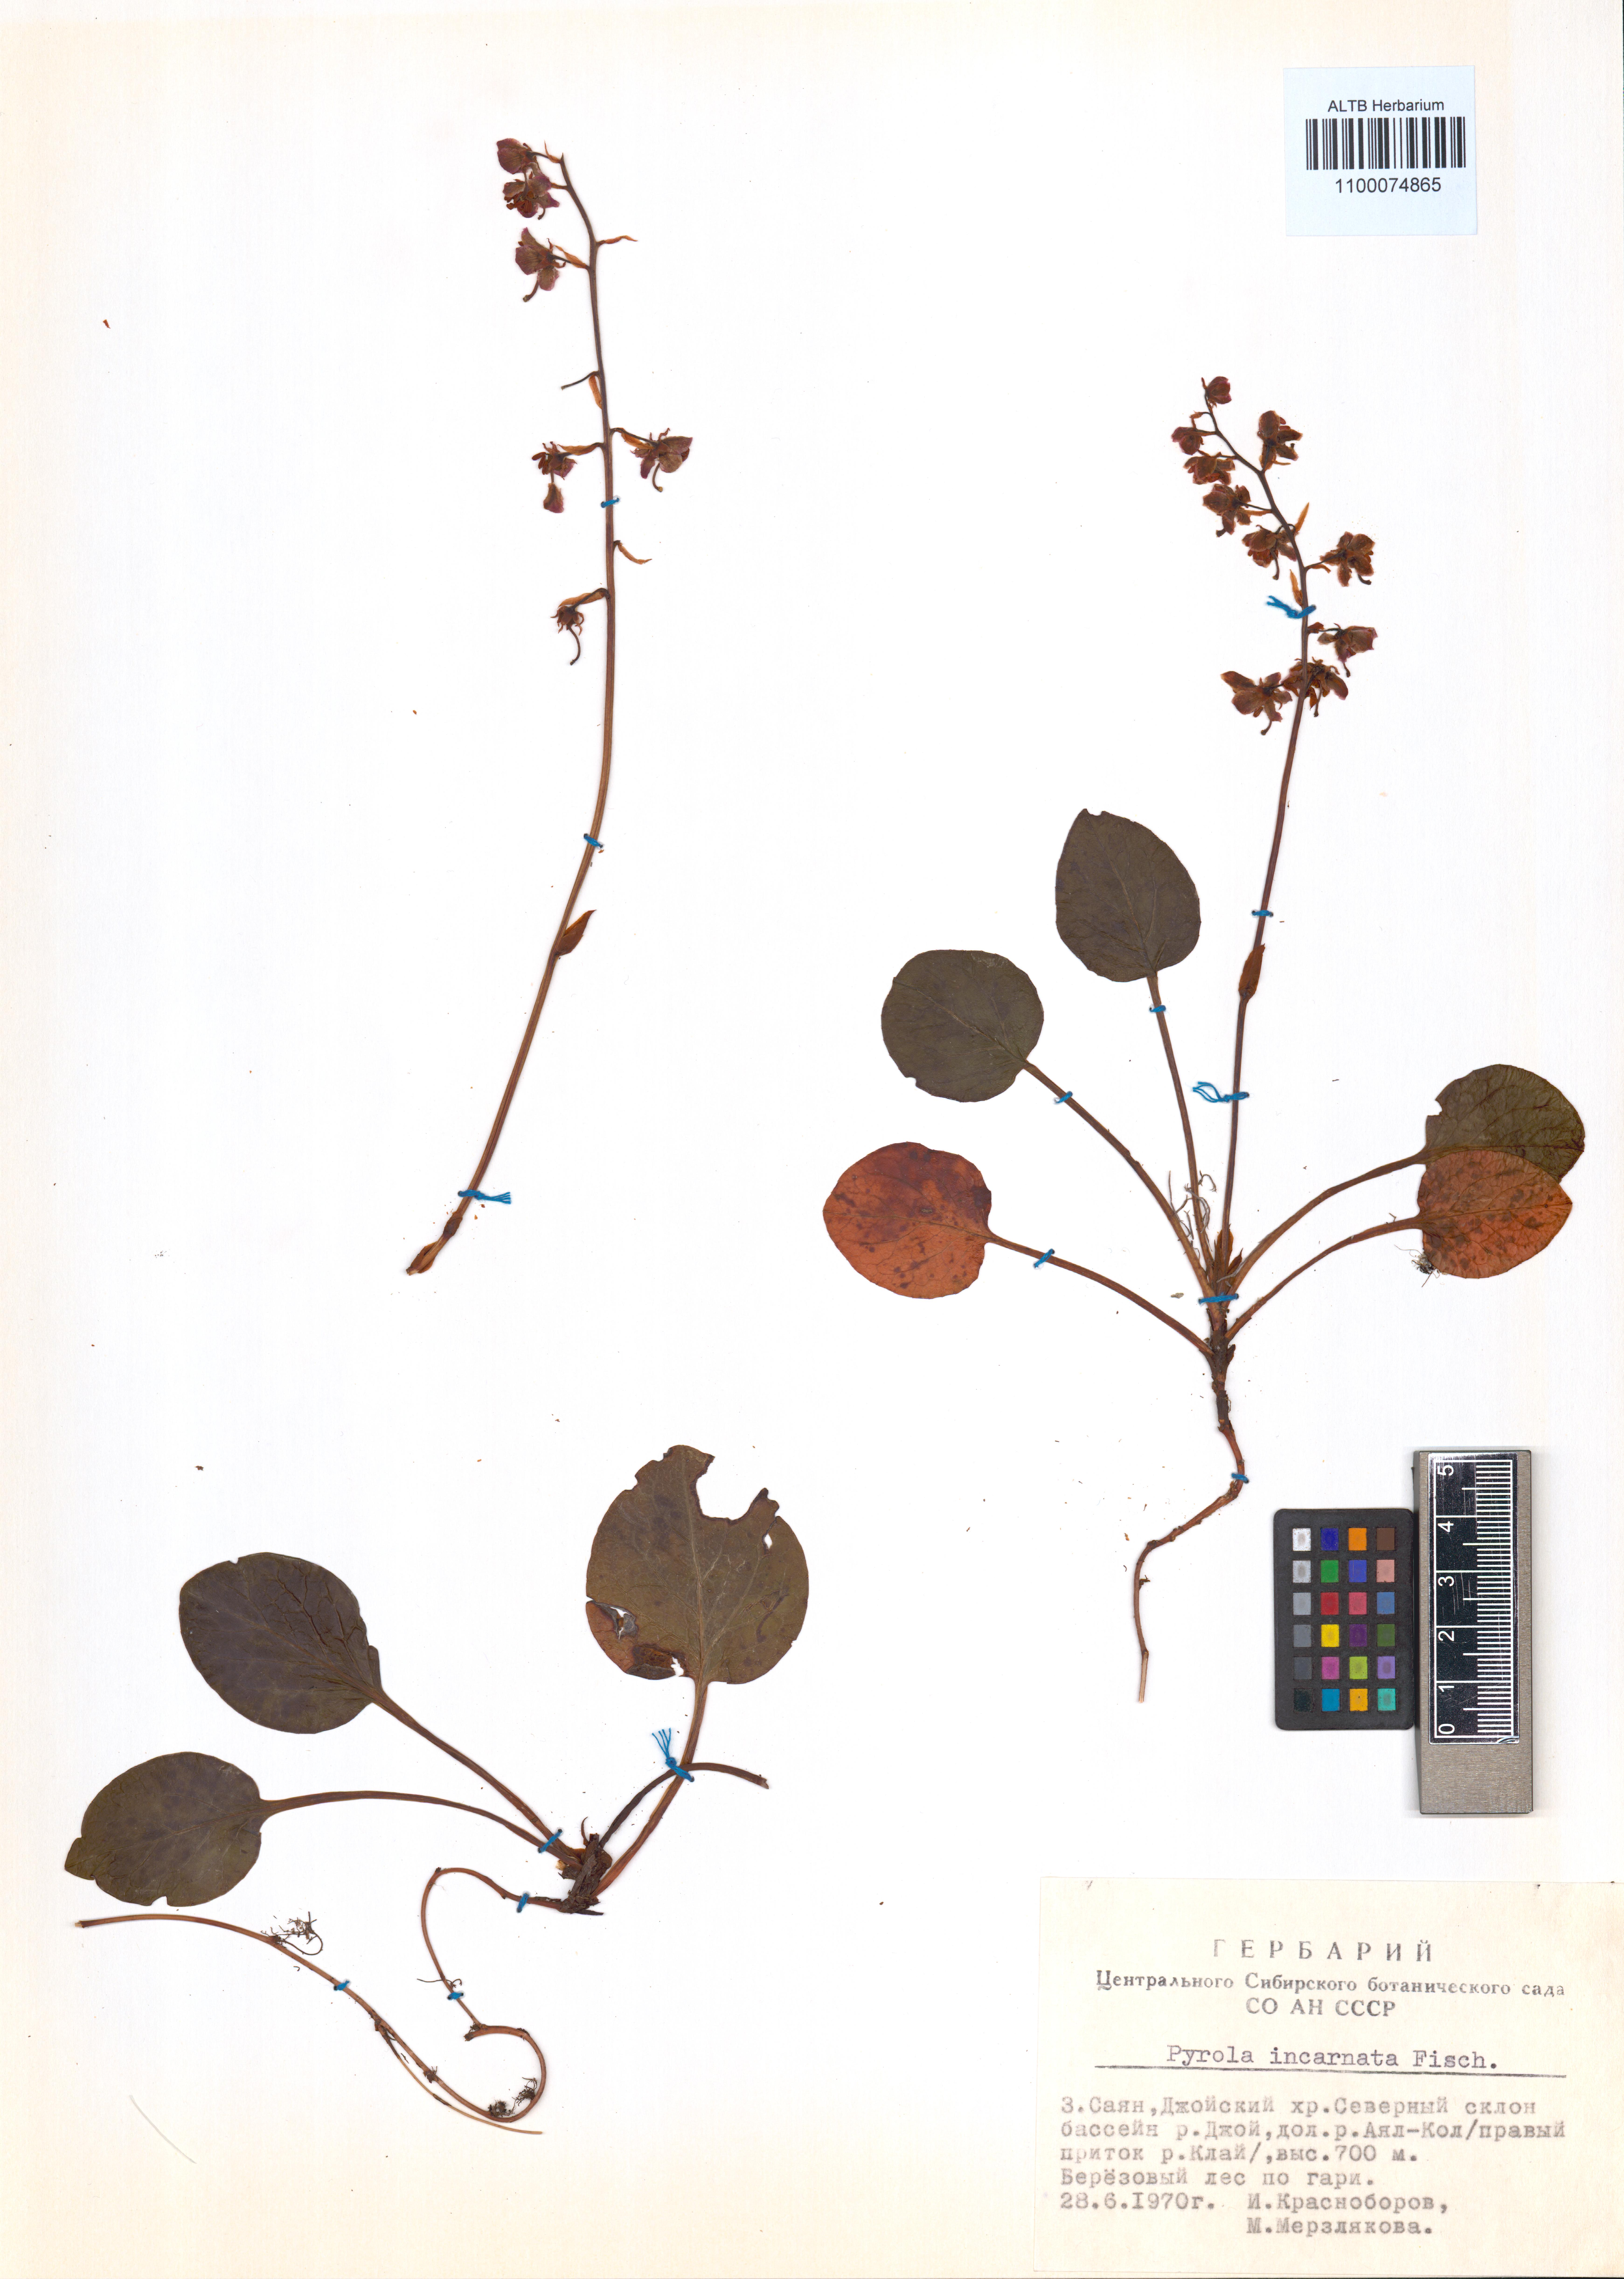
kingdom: Plantae
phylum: Tracheophyta
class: Magnoliopsida
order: Ericales
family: Ericaceae
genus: Pyrola
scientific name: Pyrola asarifolia
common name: Bog wintergreen
